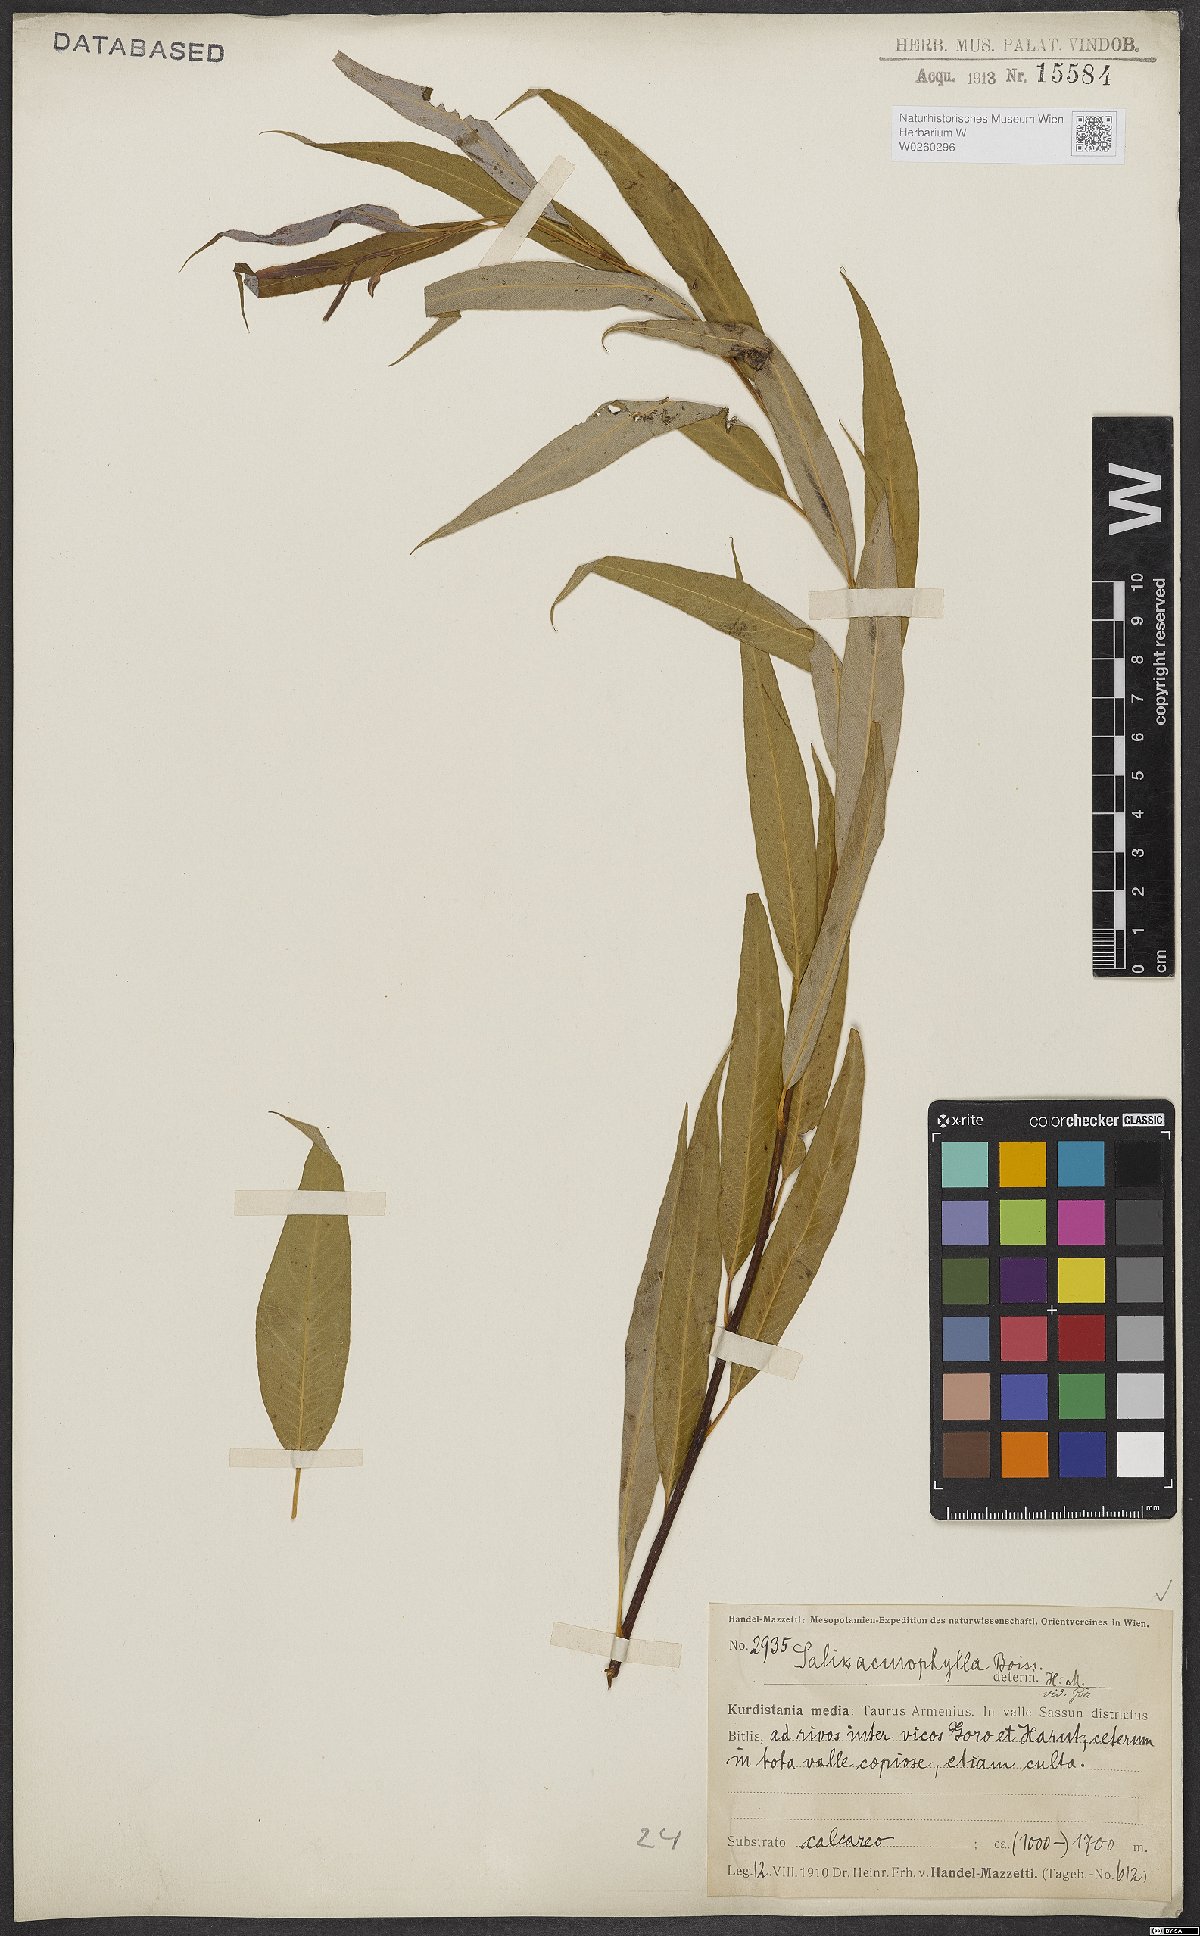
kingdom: Plantae
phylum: Tracheophyta
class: Magnoliopsida
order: Malpighiales
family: Salicaceae
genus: Salix
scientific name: Salix acmophylla
